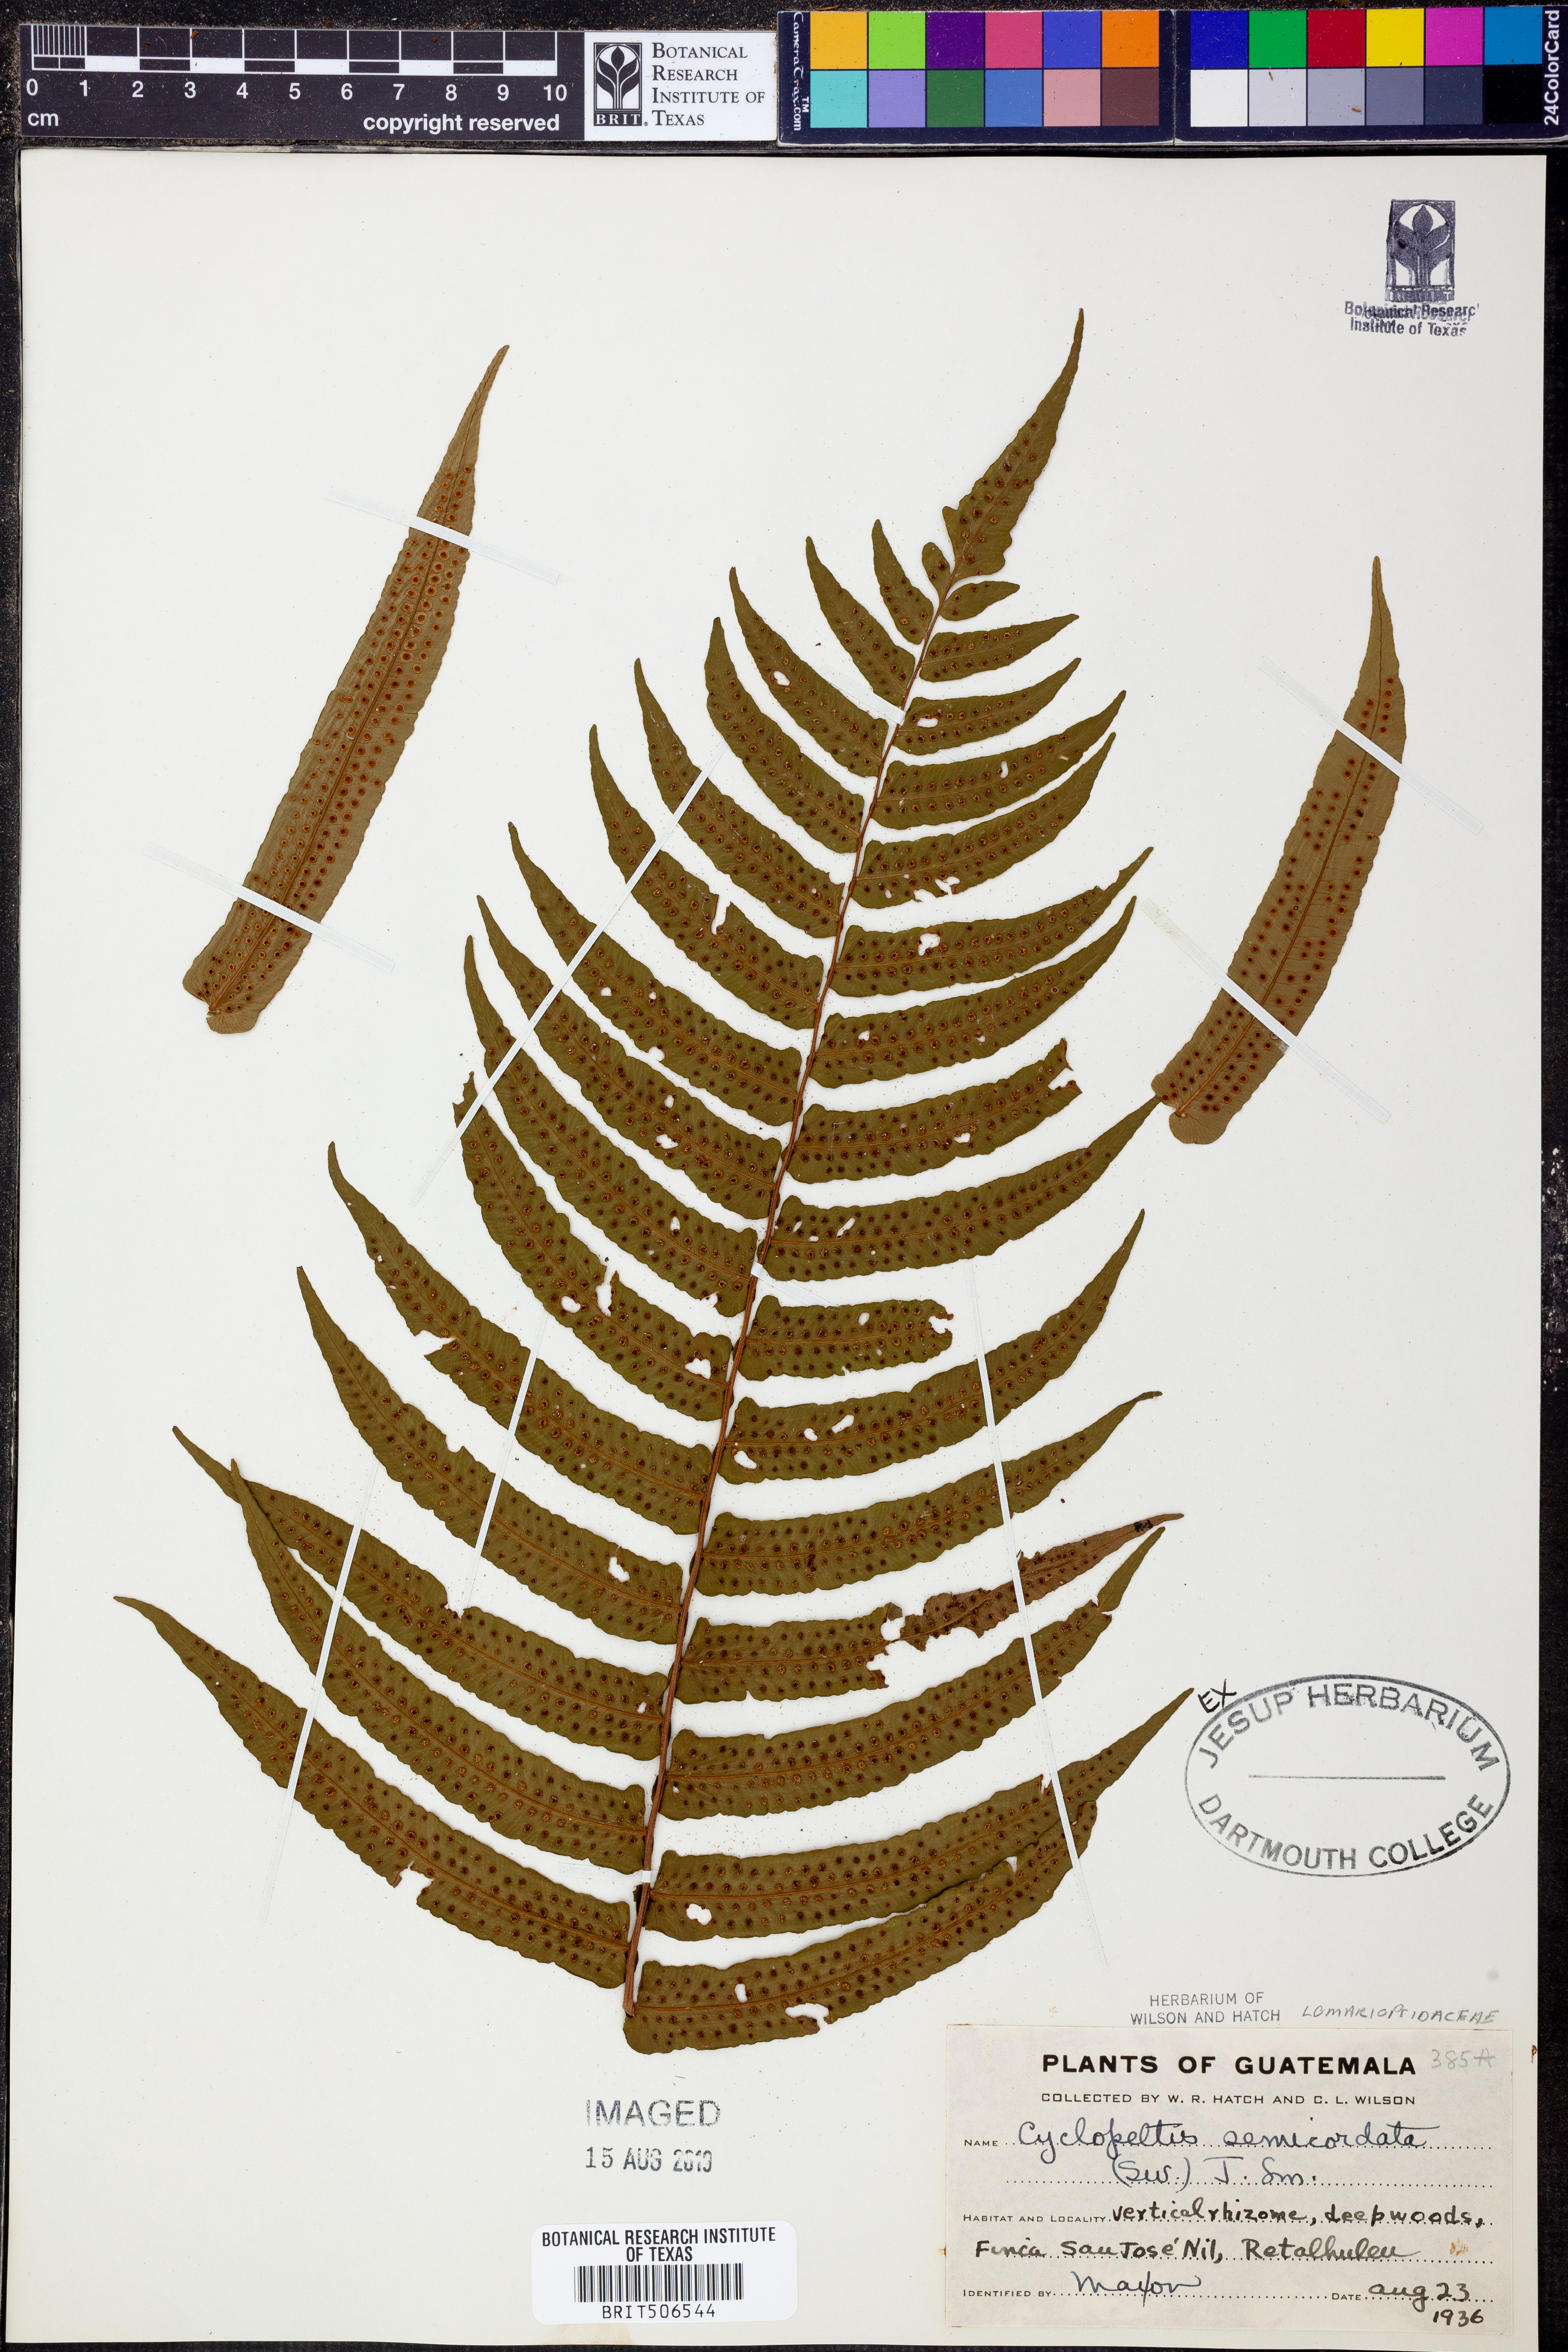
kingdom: Plantae
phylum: Tracheophyta
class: Polypodiopsida
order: Polypodiales
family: Lomariopsidaceae
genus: Cyclopeltis
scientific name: Cyclopeltis semicordata
